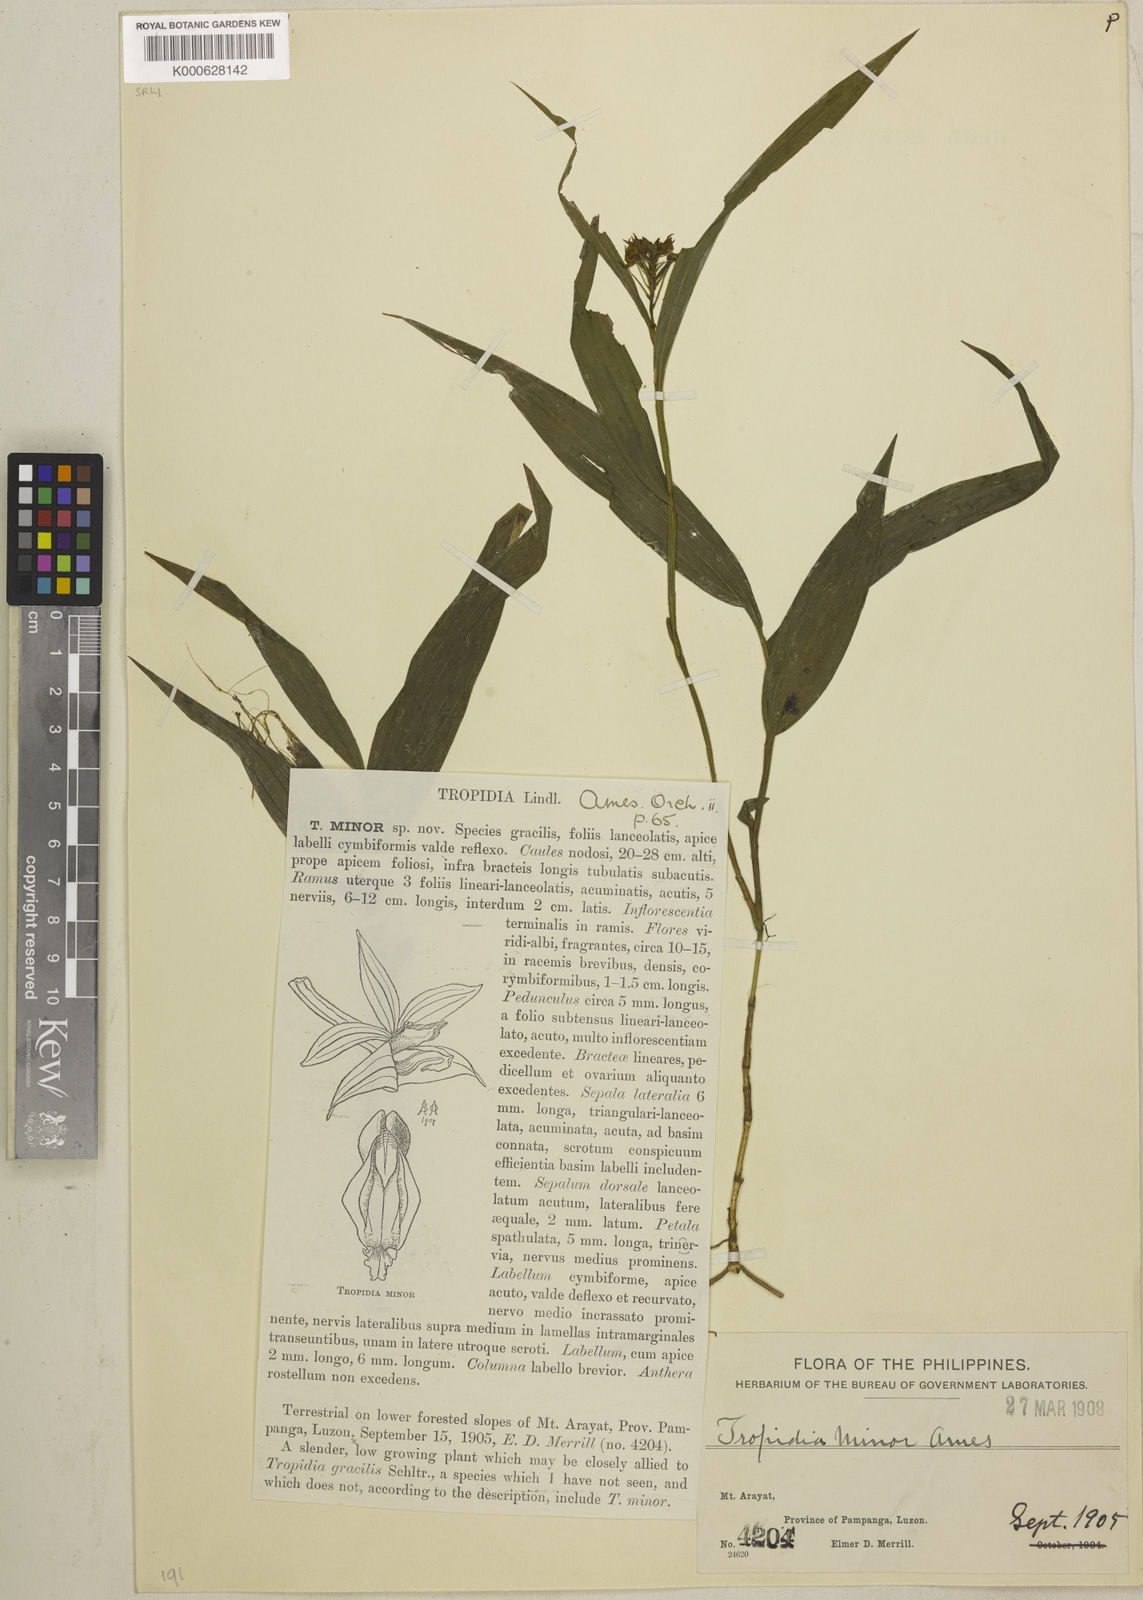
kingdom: Plantae
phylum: Tracheophyta
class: Liliopsida
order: Asparagales
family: Orchidaceae
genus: Tropidia
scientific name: Tropidia septemnervis
